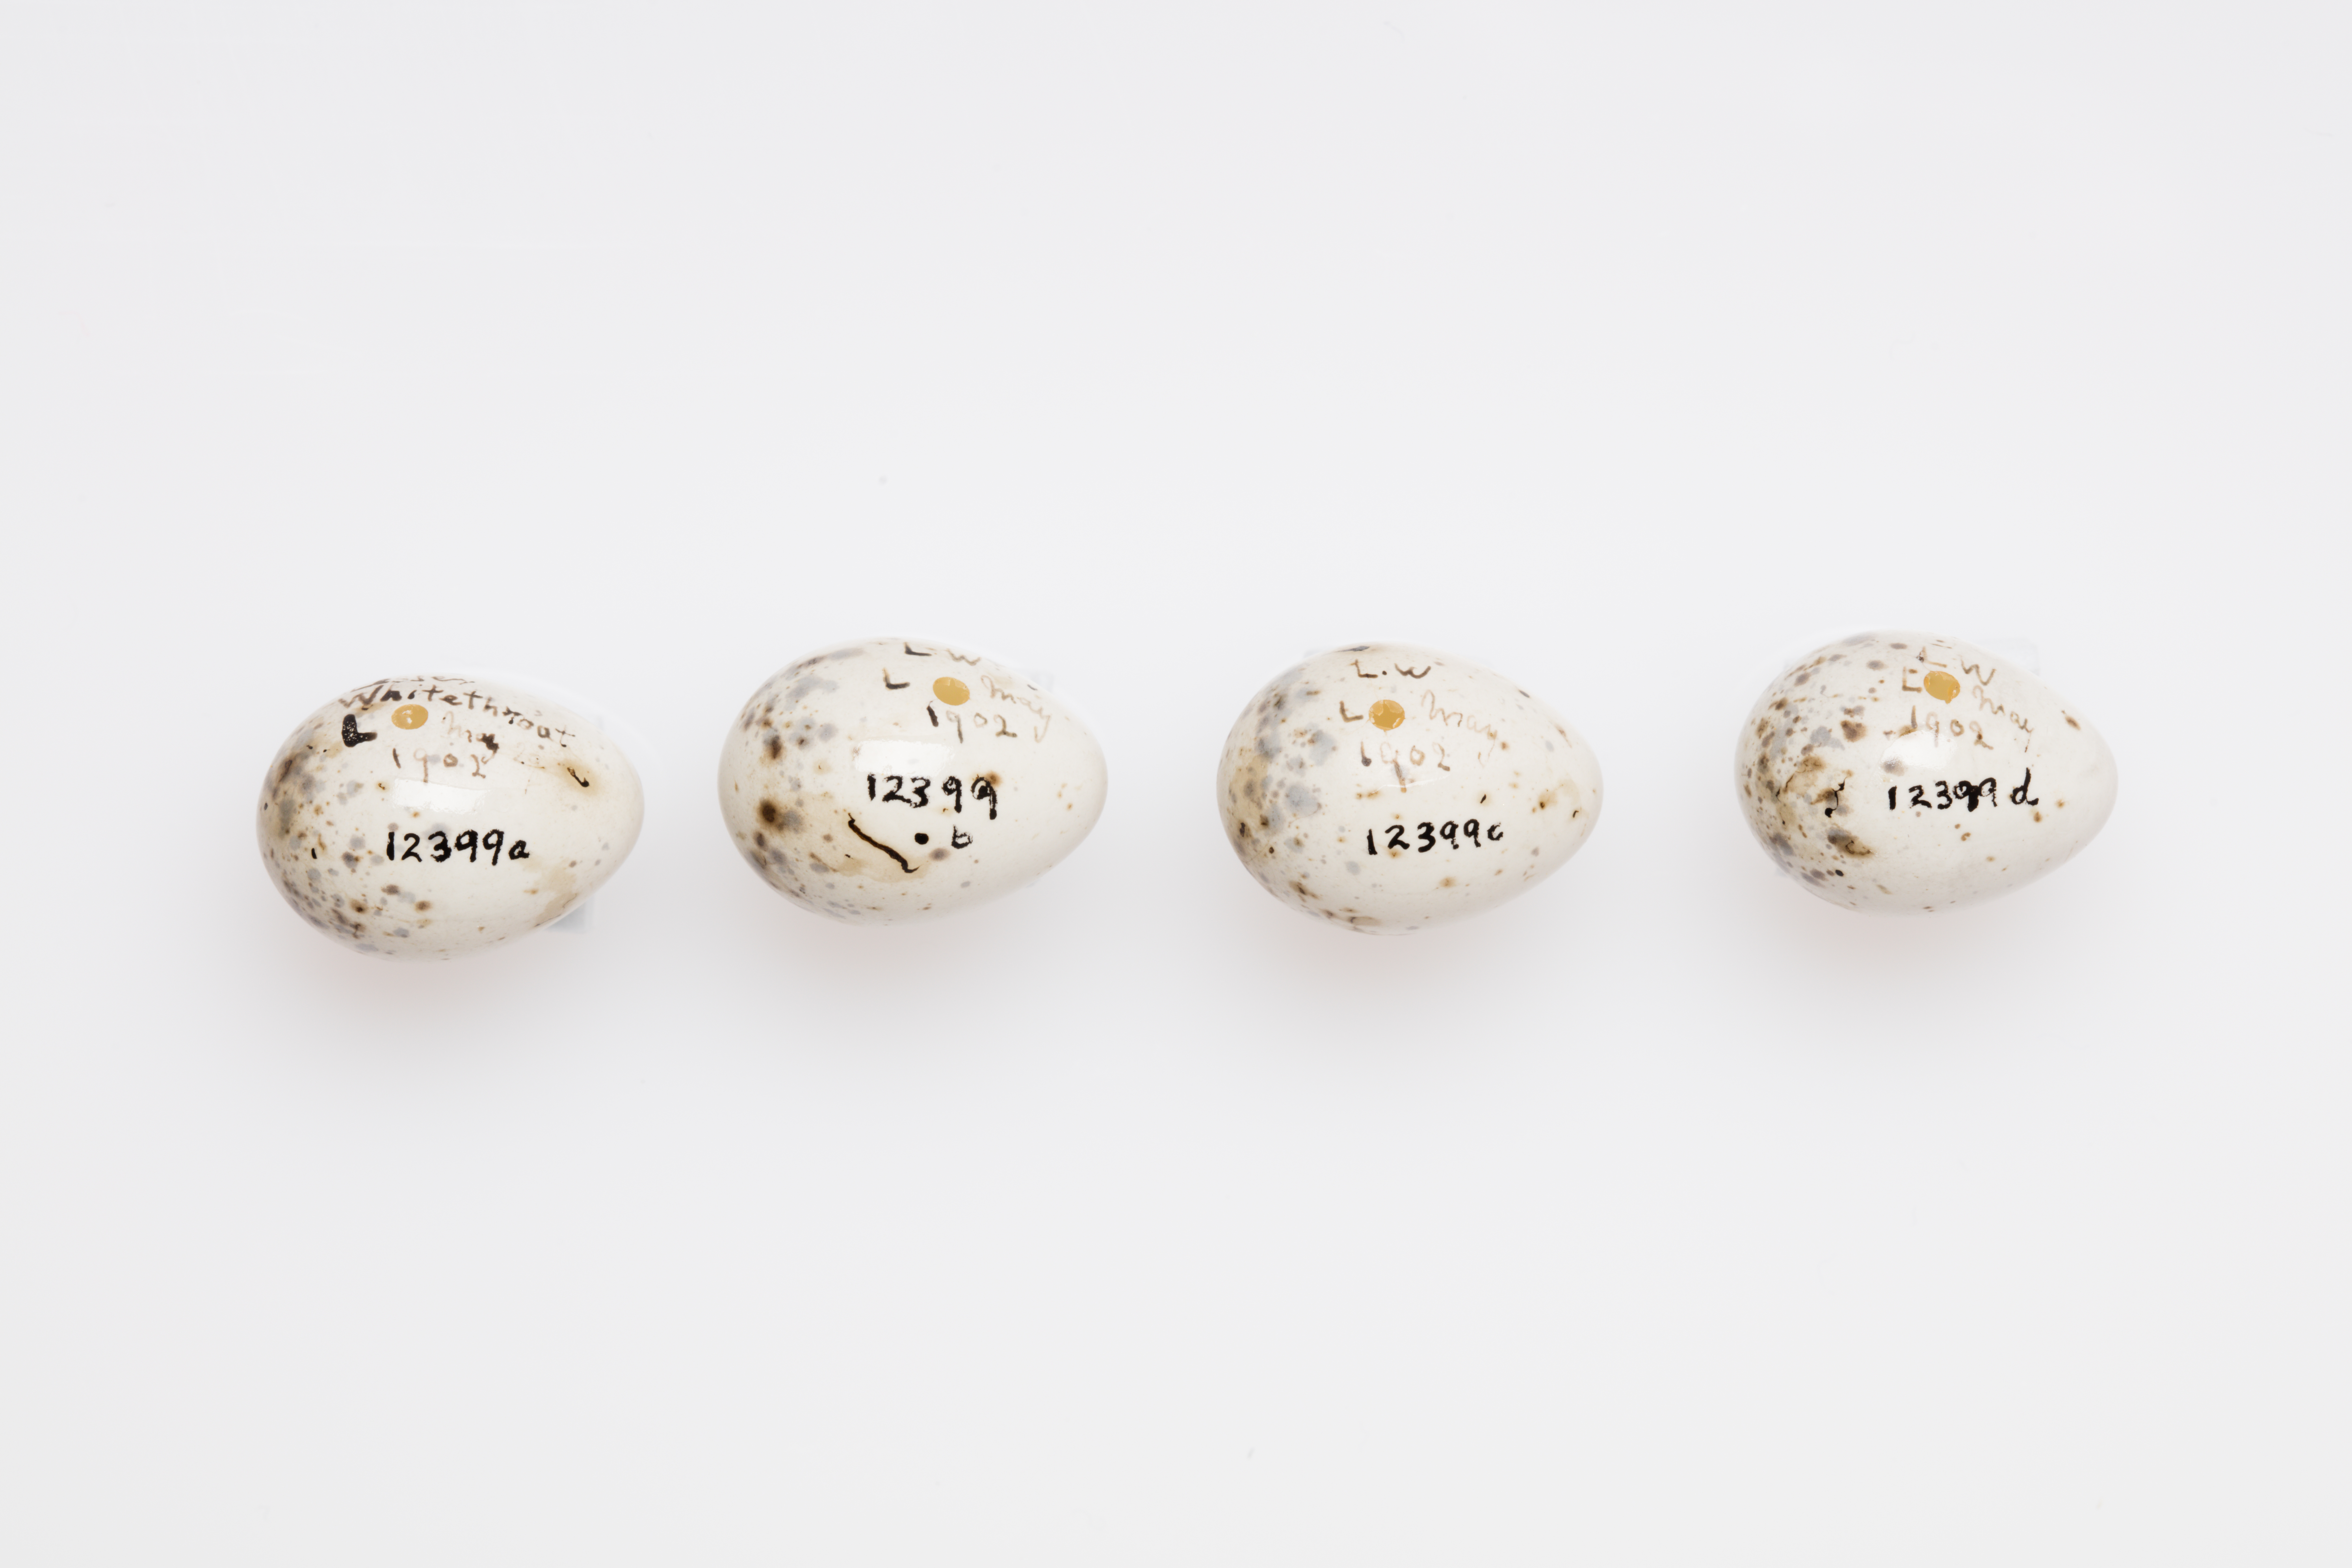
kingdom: Animalia
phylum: Chordata
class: Aves
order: Passeriformes
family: Sylviidae
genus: Sylvia
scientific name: Sylvia curruca
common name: Lesser whitethroat
